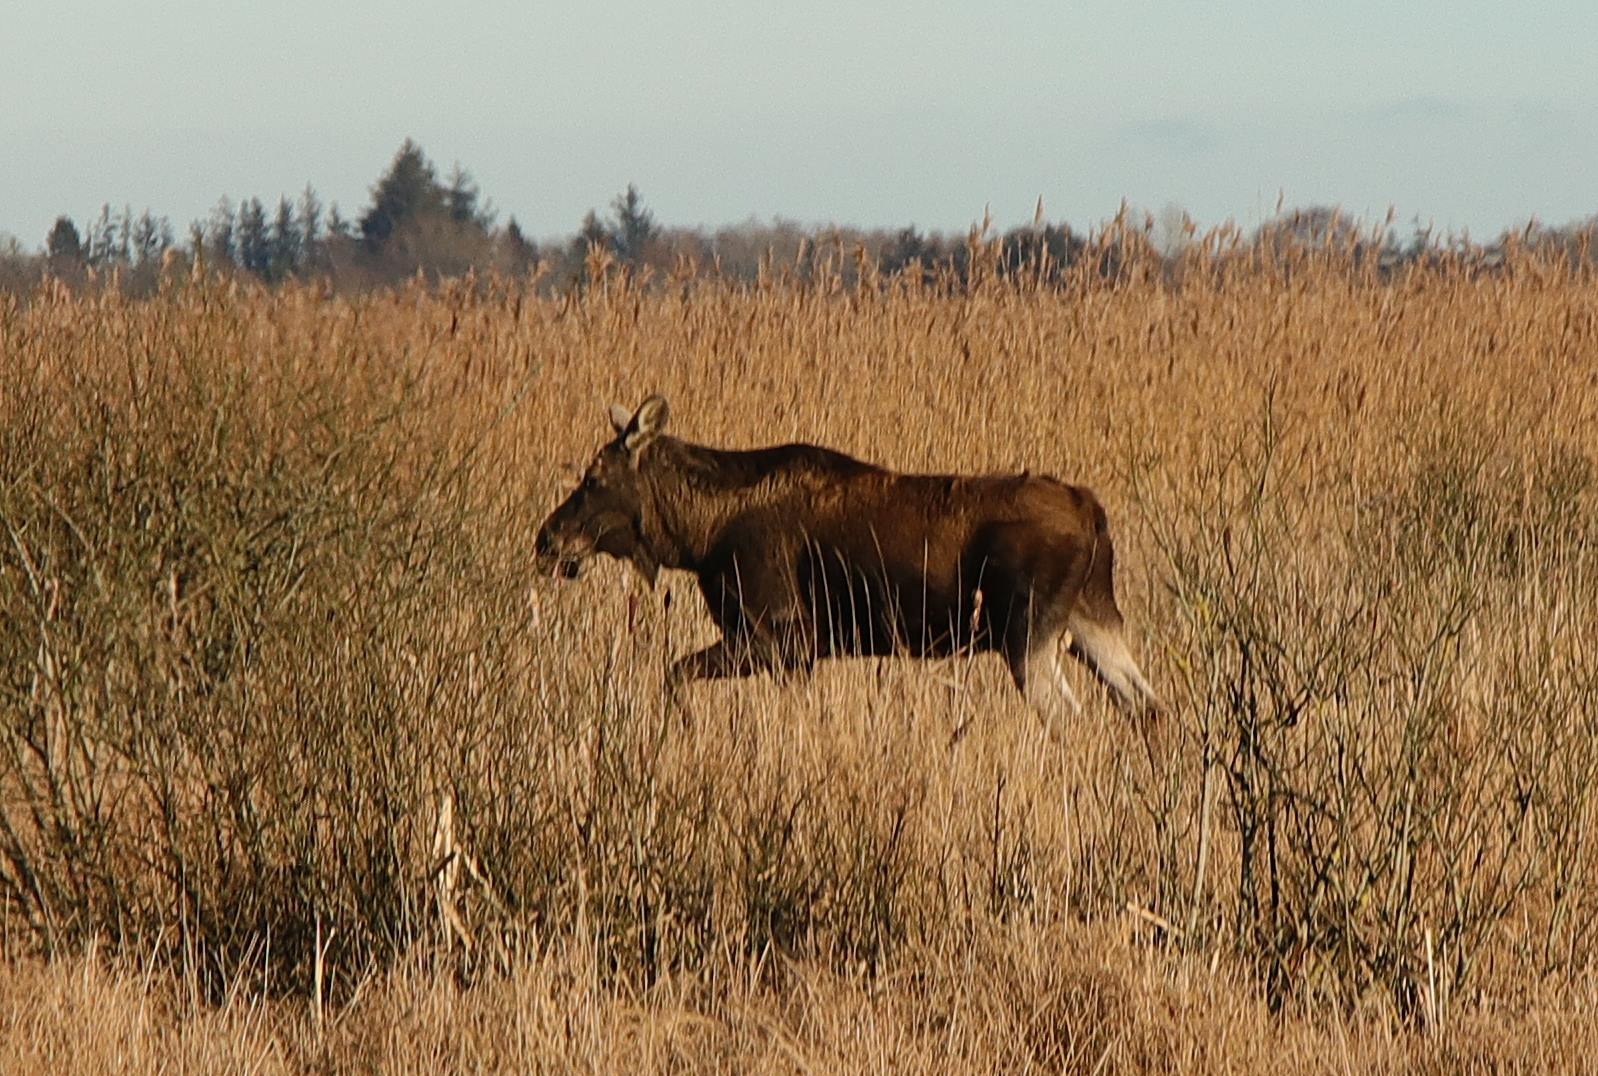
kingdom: Animalia
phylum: Chordata
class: Mammalia
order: Artiodactyla
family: Cervidae
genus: Alces
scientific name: Alces alces
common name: Elg
